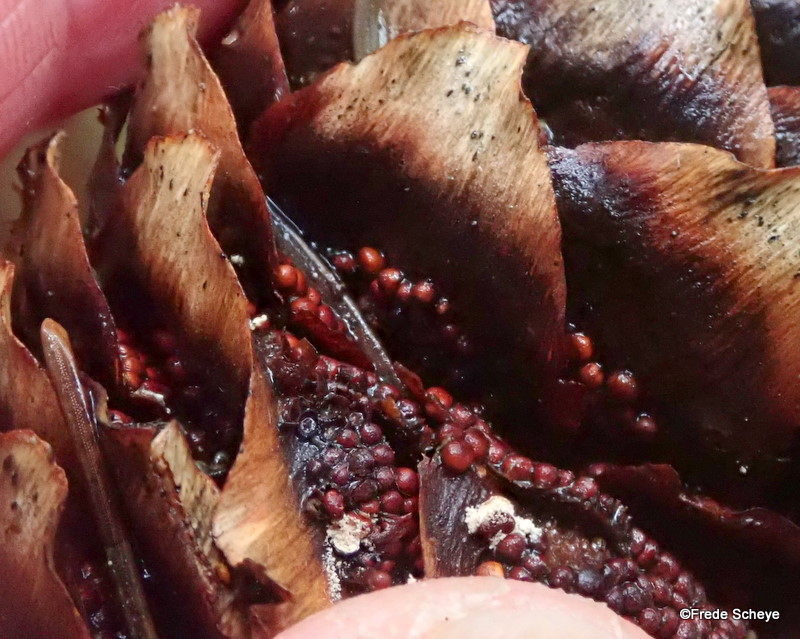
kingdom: Fungi
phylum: Basidiomycota
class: Pucciniomycetes
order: Pucciniales
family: Pucciniastraceae
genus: Thekopsora
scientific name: Thekopsora areolata
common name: grankogle-nålerust
